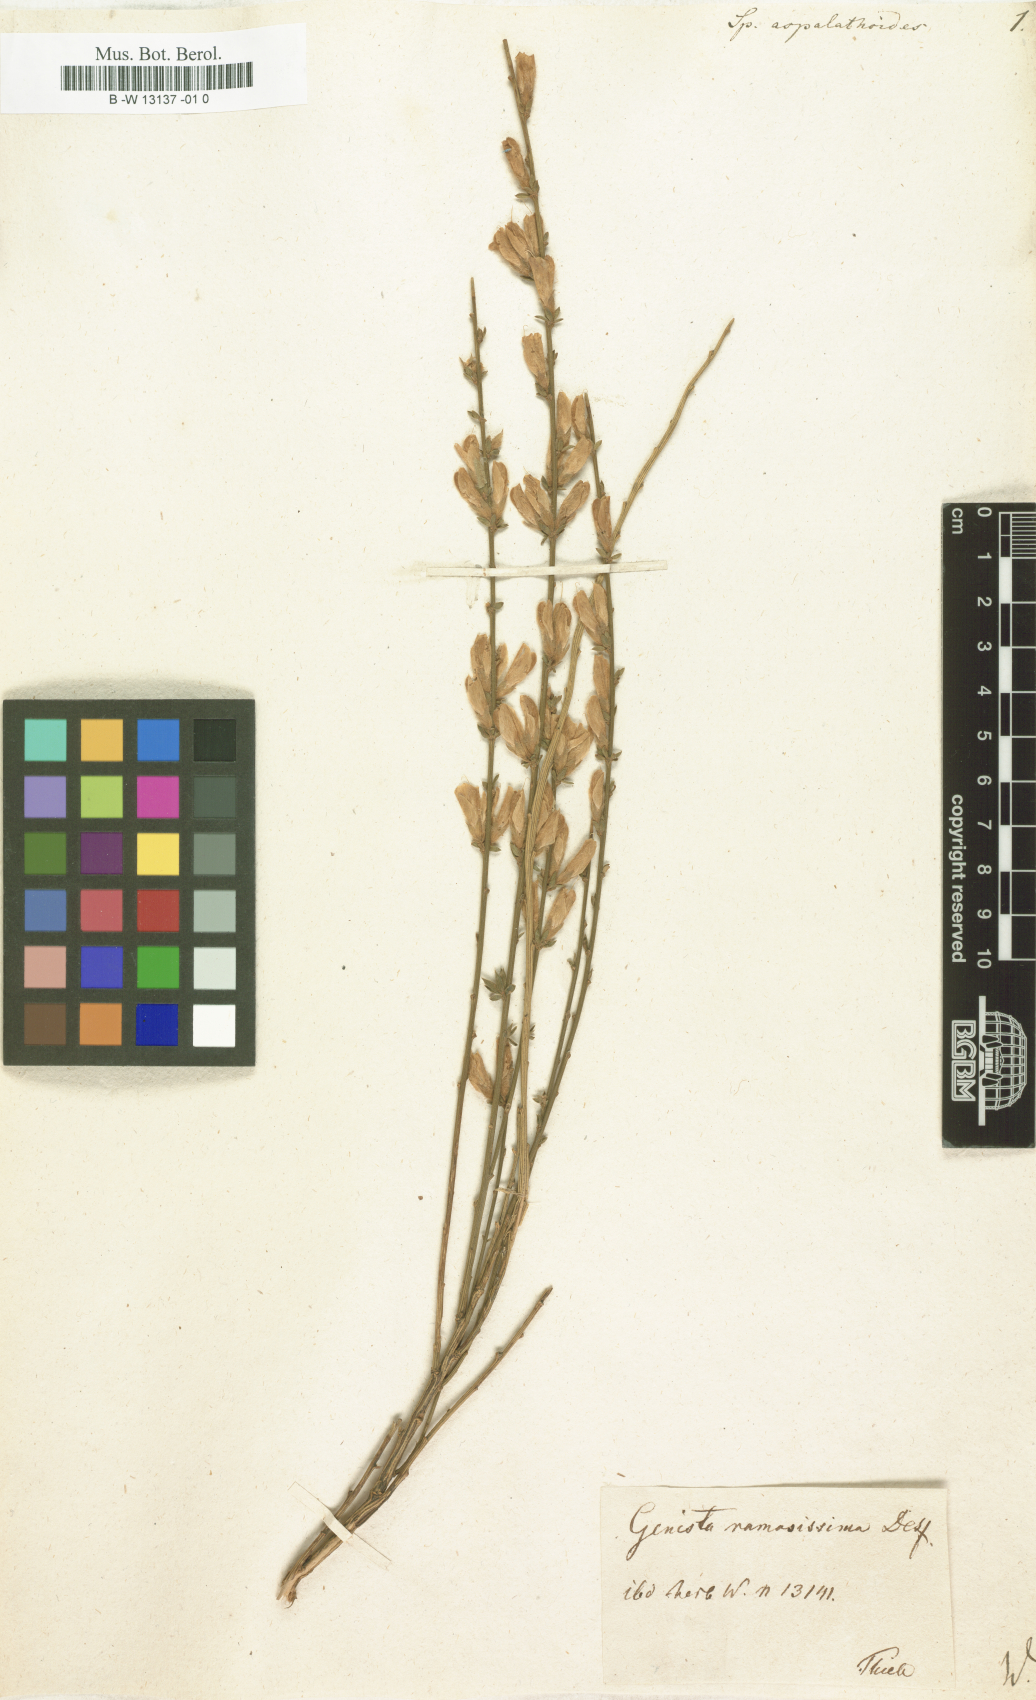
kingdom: Plantae
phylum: Tracheophyta
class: Magnoliopsida
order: Fabales
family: Fabaceae
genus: Genista
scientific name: Genista aspalathoides
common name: Broom of pantelleria
